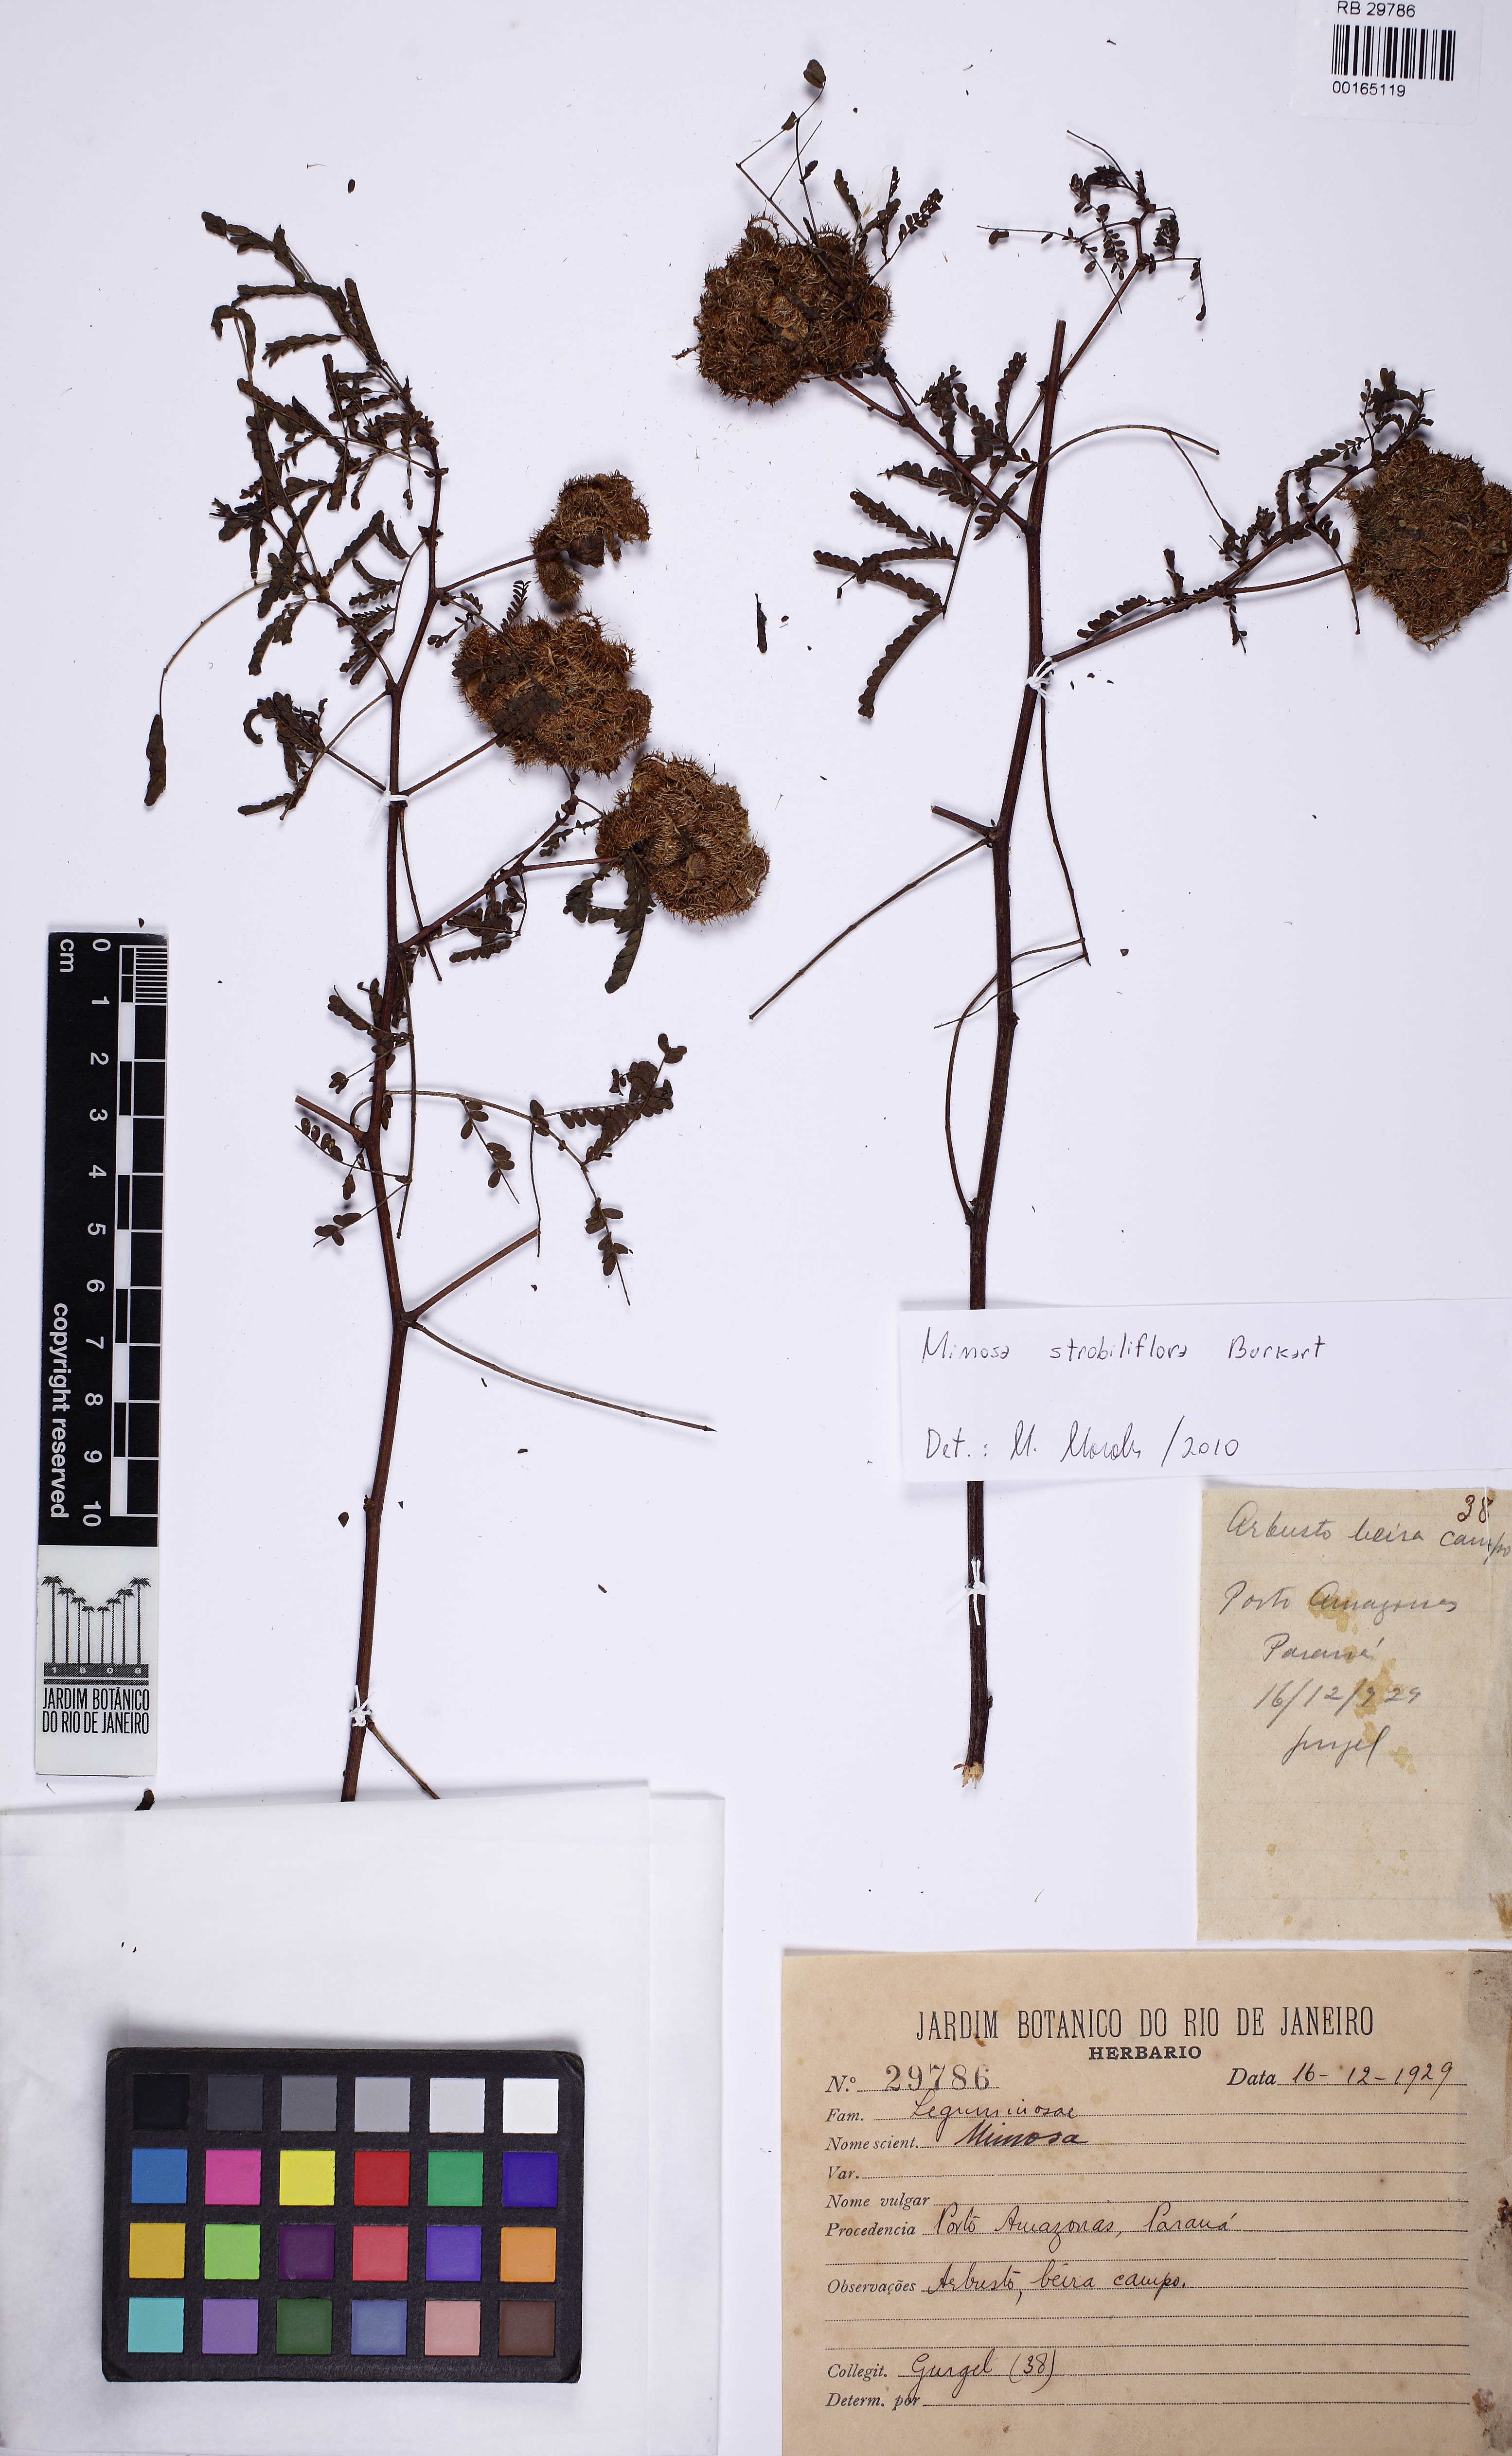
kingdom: Plantae
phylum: Tracheophyta
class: Magnoliopsida
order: Fabales
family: Fabaceae
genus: Mimosa
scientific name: Mimosa strobiliflora
